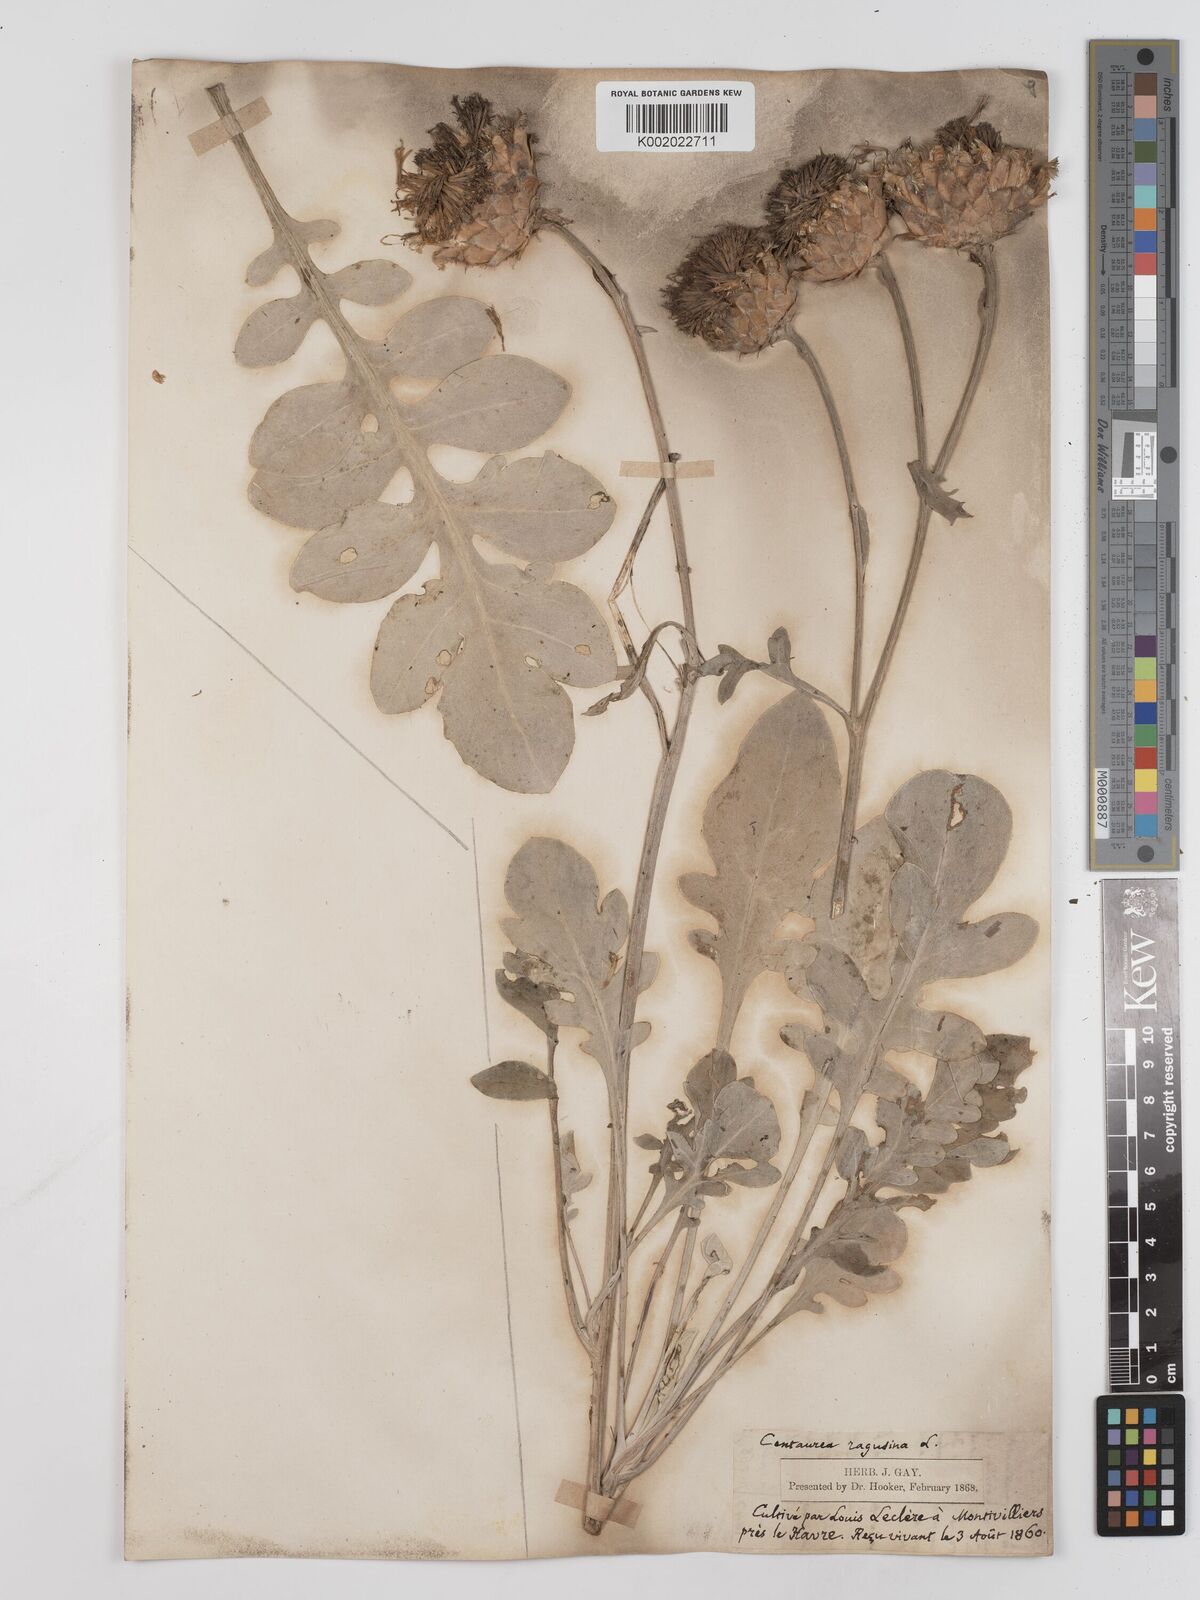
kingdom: Plantae
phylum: Tracheophyta
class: Magnoliopsida
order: Asterales
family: Asteraceae
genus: Centaurea
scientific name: Centaurea ragusina
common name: Dusty-miller
